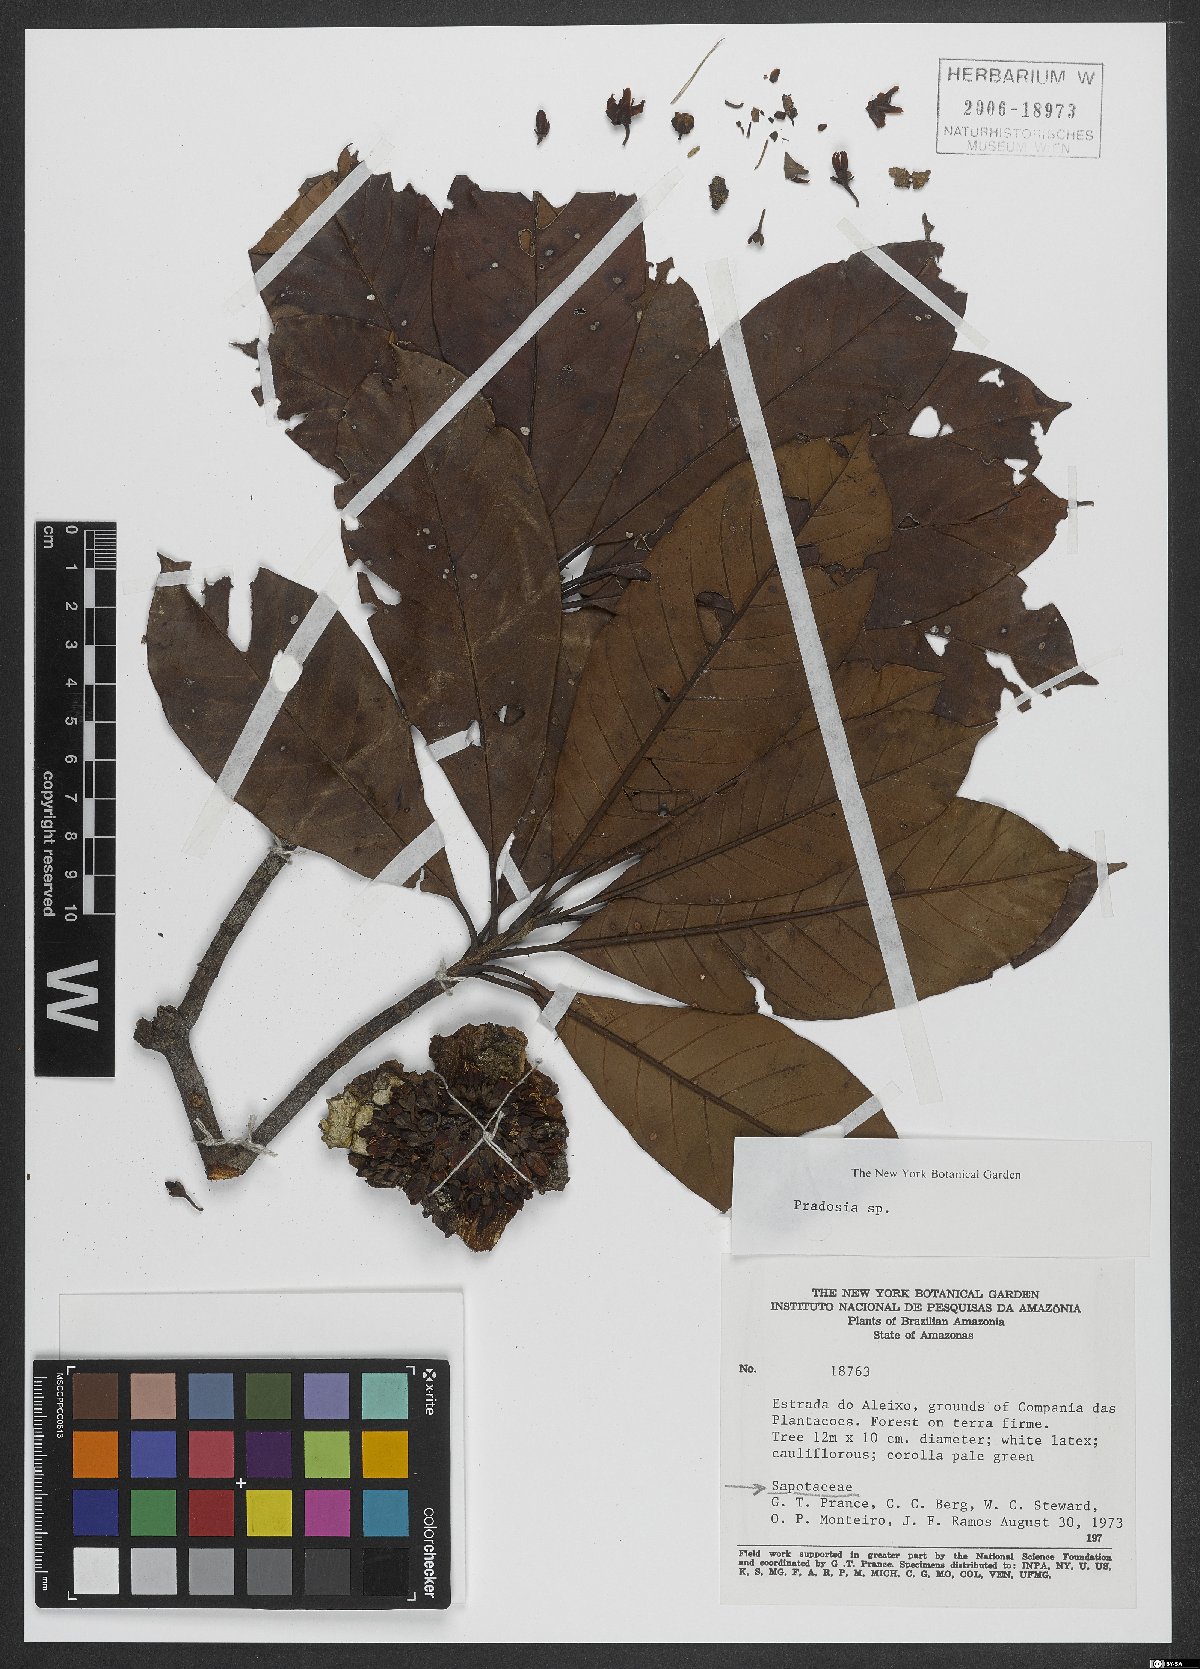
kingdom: Plantae
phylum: Tracheophyta
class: Magnoliopsida
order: Ericales
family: Sapotaceae
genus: Pradosia
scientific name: Pradosia
